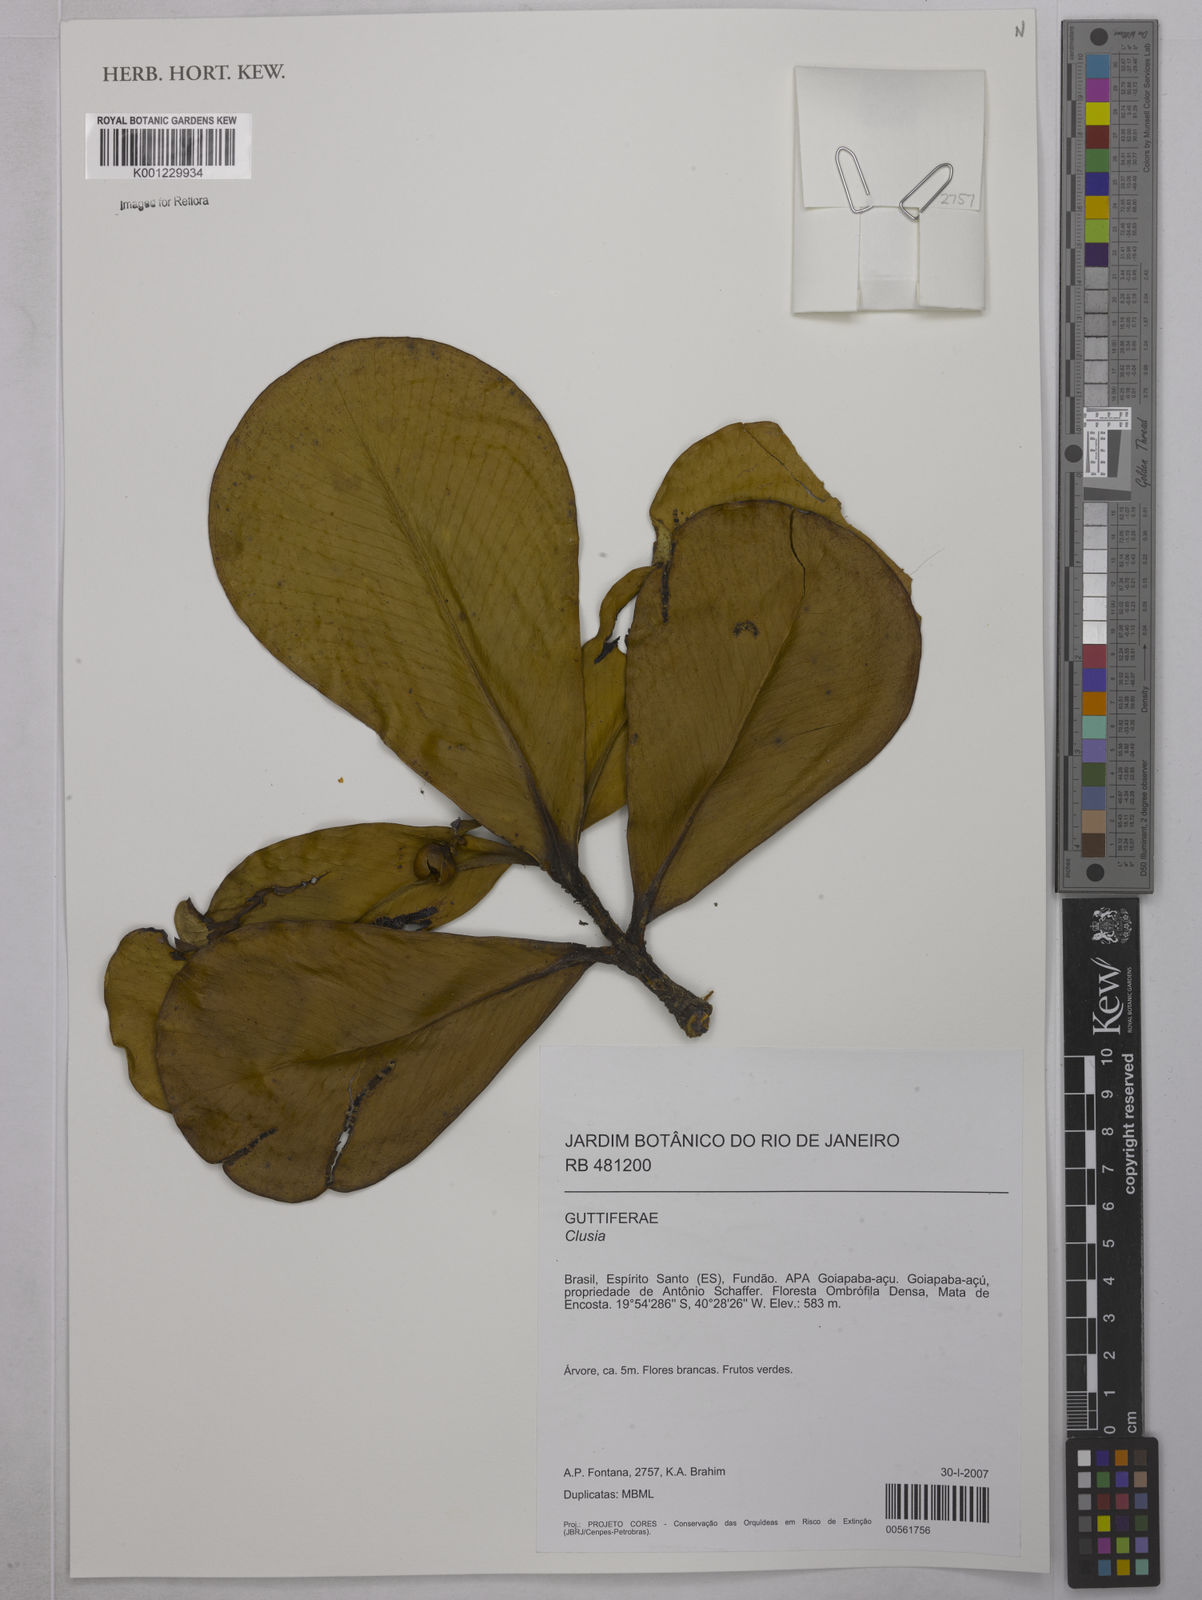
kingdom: Plantae
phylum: Tracheophyta
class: Magnoliopsida
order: Malpighiales
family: Clusiaceae
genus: Clusia
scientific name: Clusia
